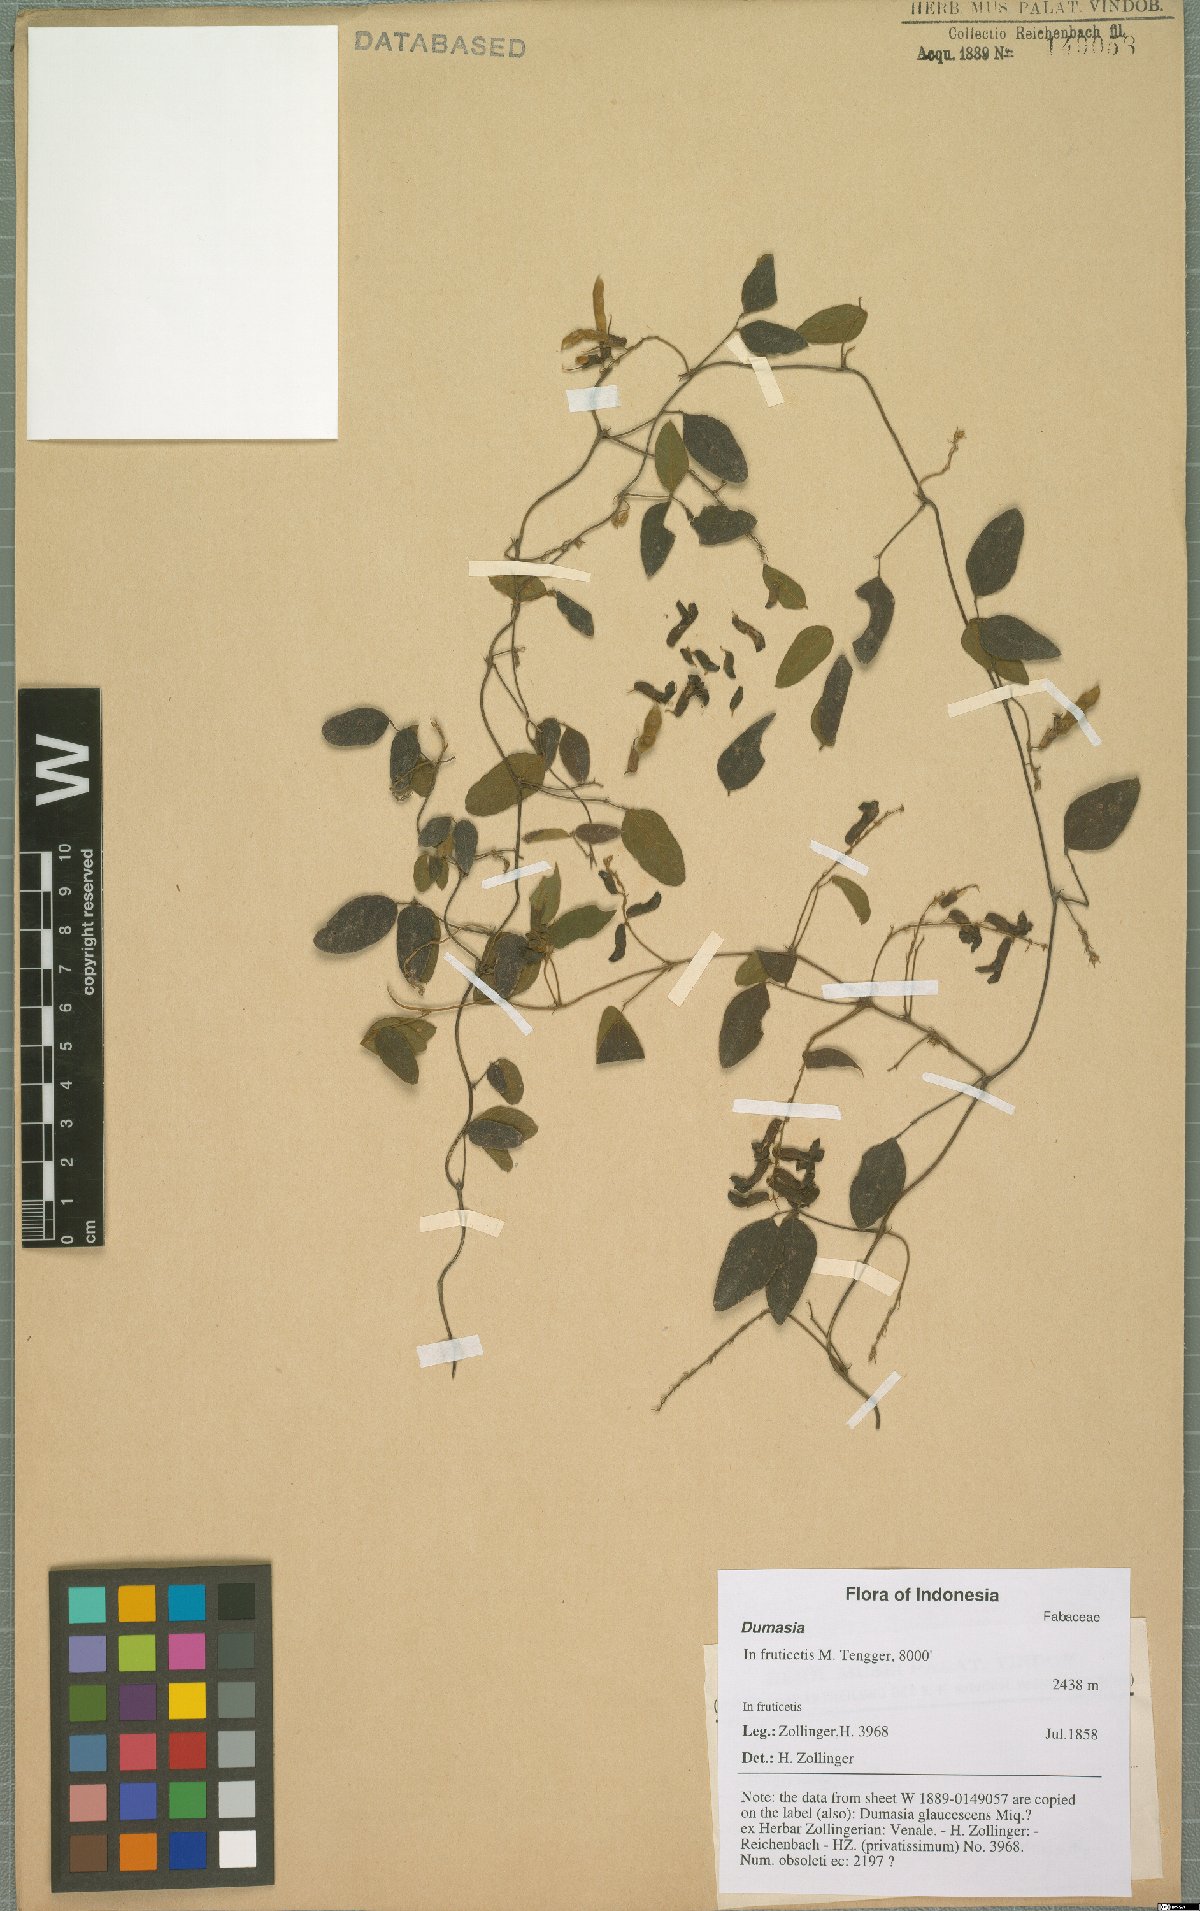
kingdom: Plantae
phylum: Tracheophyta
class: Magnoliopsida
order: Fabales
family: Fabaceae
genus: Dumasia
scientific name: Dumasia
